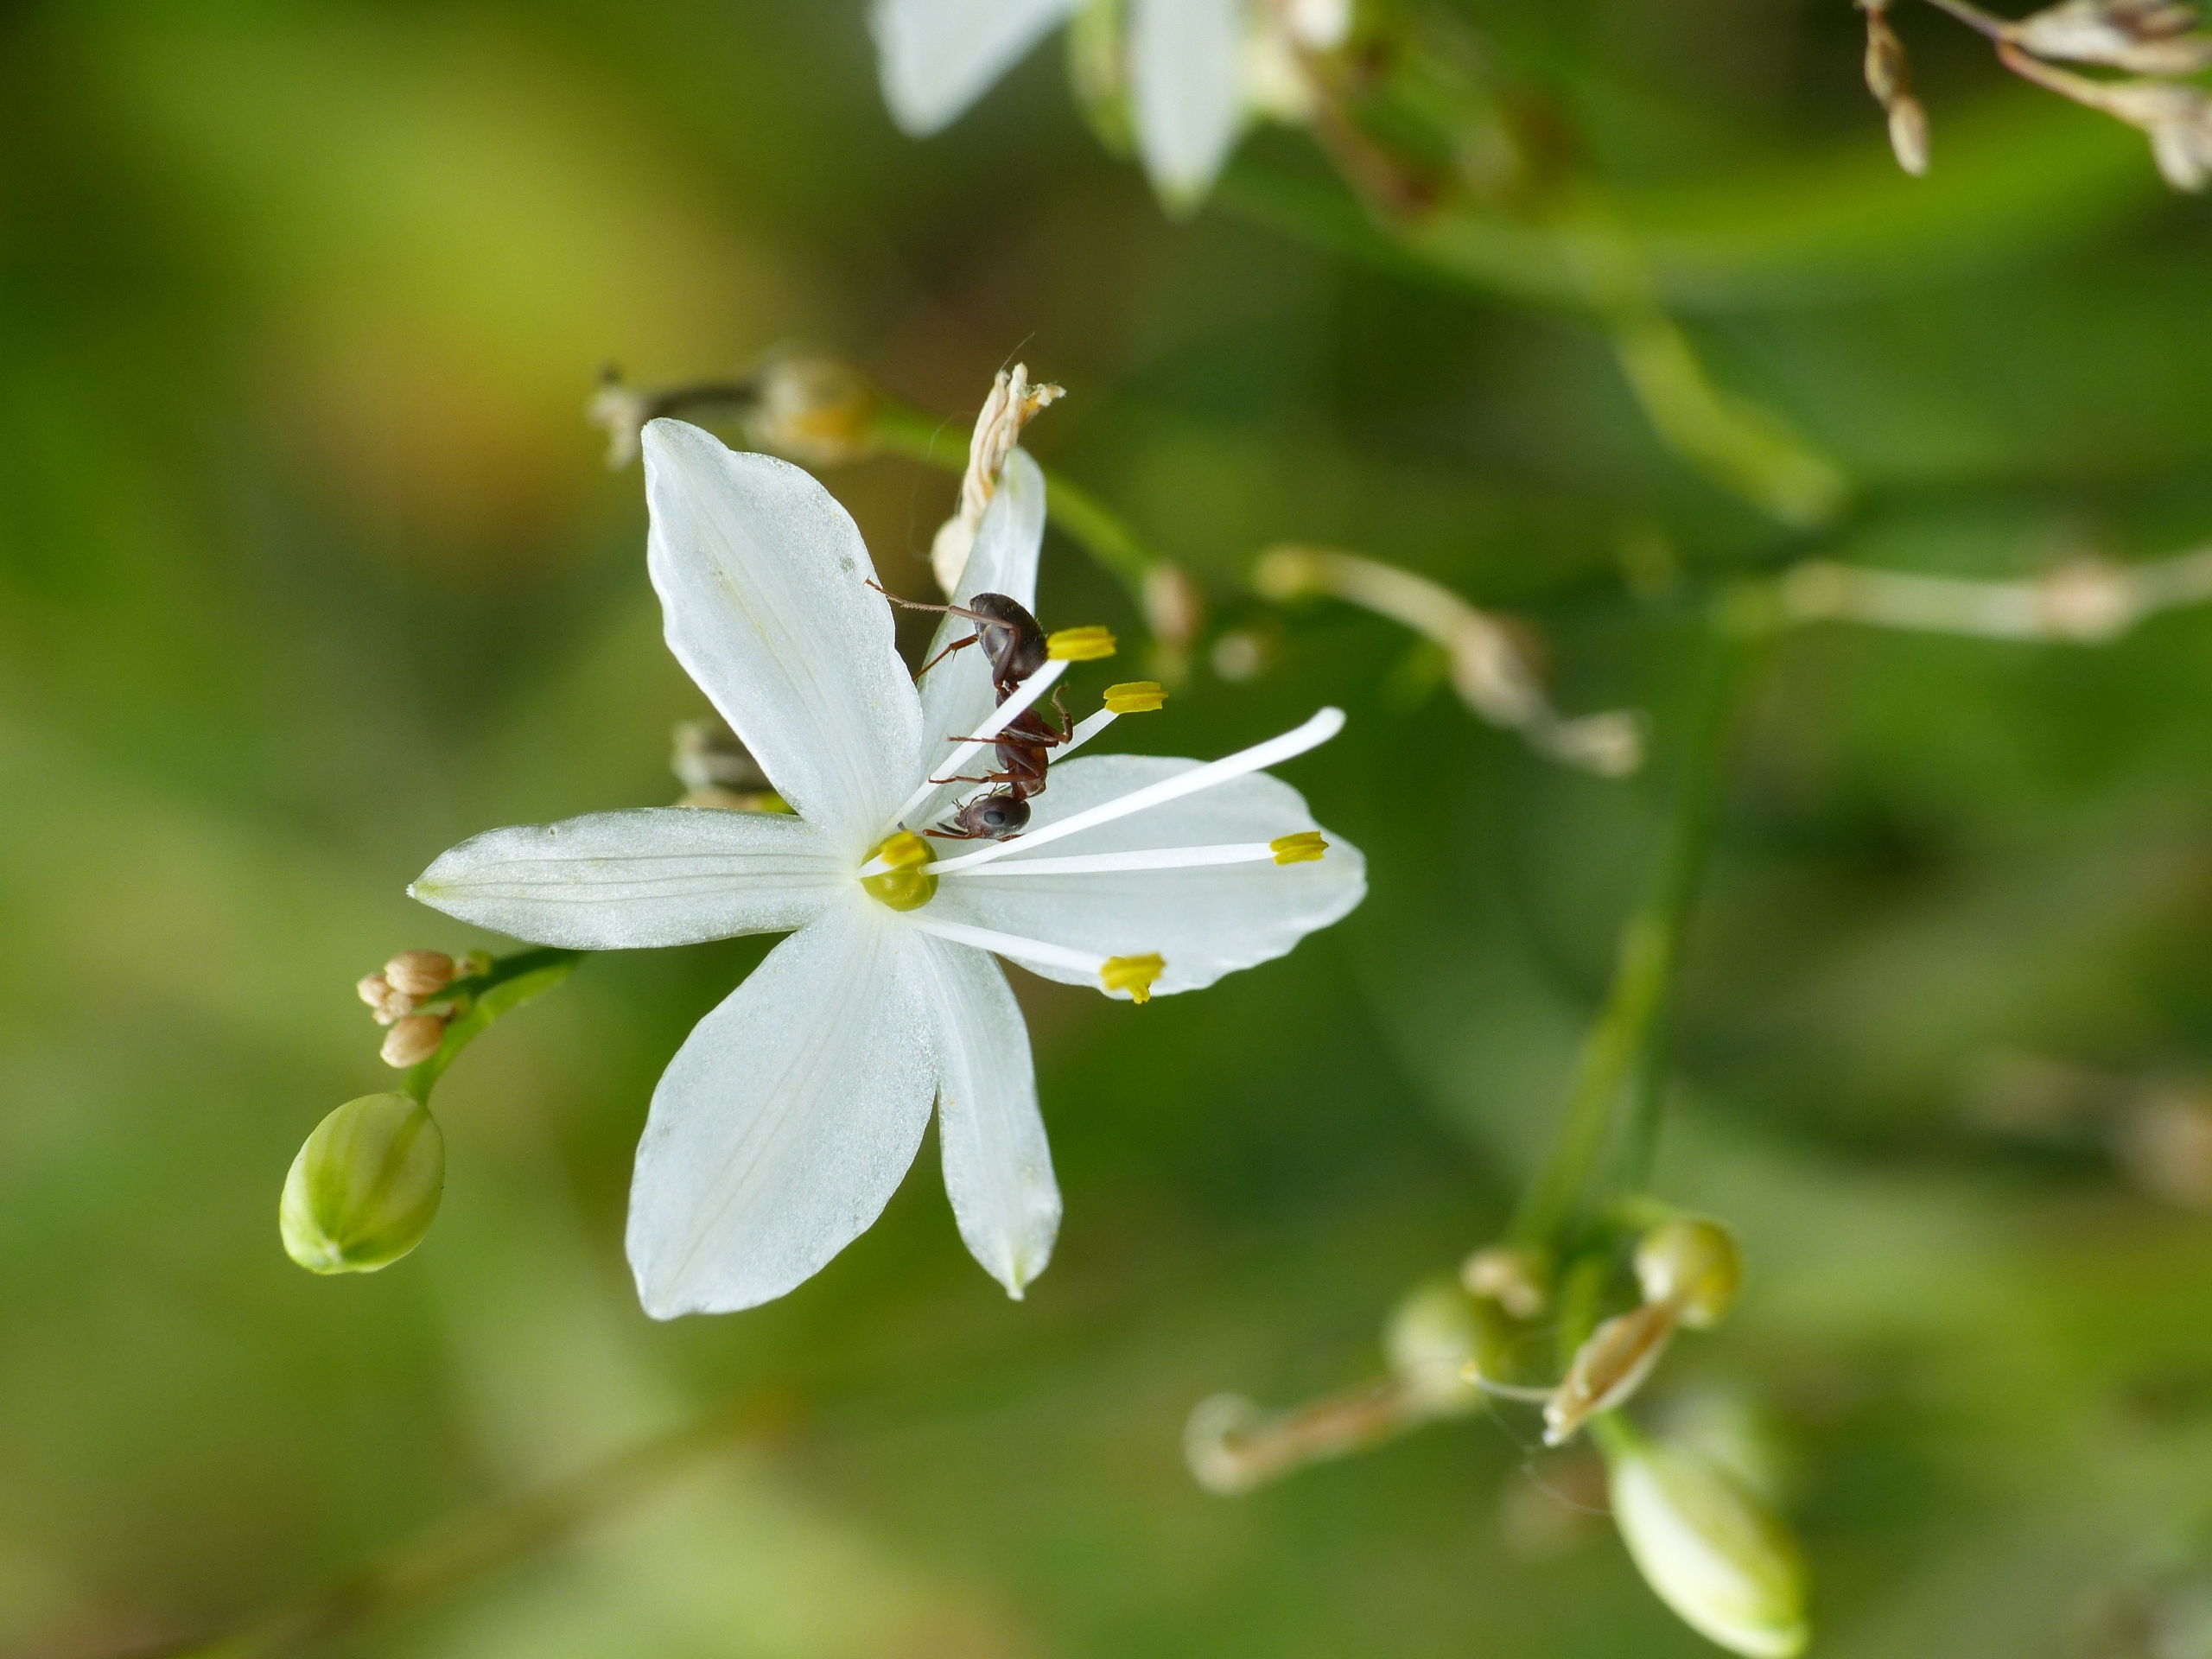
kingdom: Plantae
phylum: Tracheophyta
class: Liliopsida
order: Asparagales
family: Asparagaceae
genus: Anthericum
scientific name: Anthericum ramosum
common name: Grenet edderkopurt
